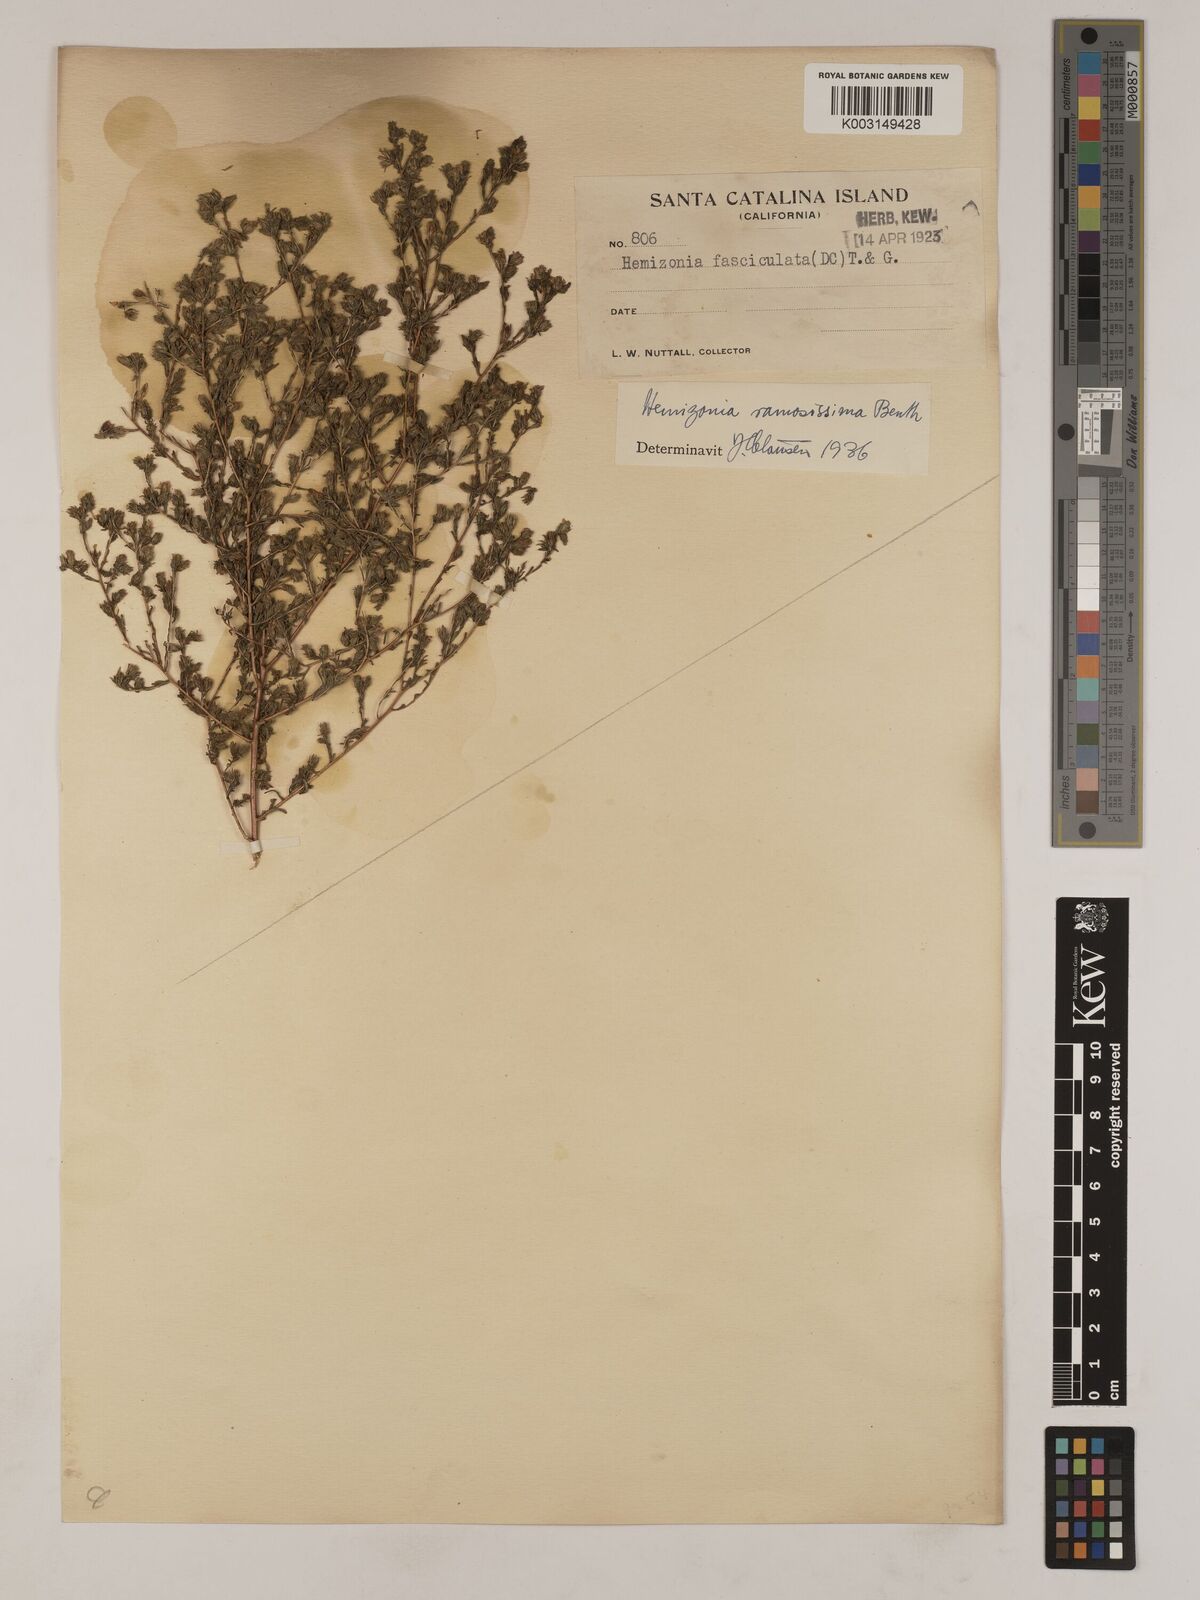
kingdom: Plantae
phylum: Tracheophyta
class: Magnoliopsida
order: Asterales
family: Asteraceae
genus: Deinandra
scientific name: Deinandra fasciculata
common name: Clustered tarweed
